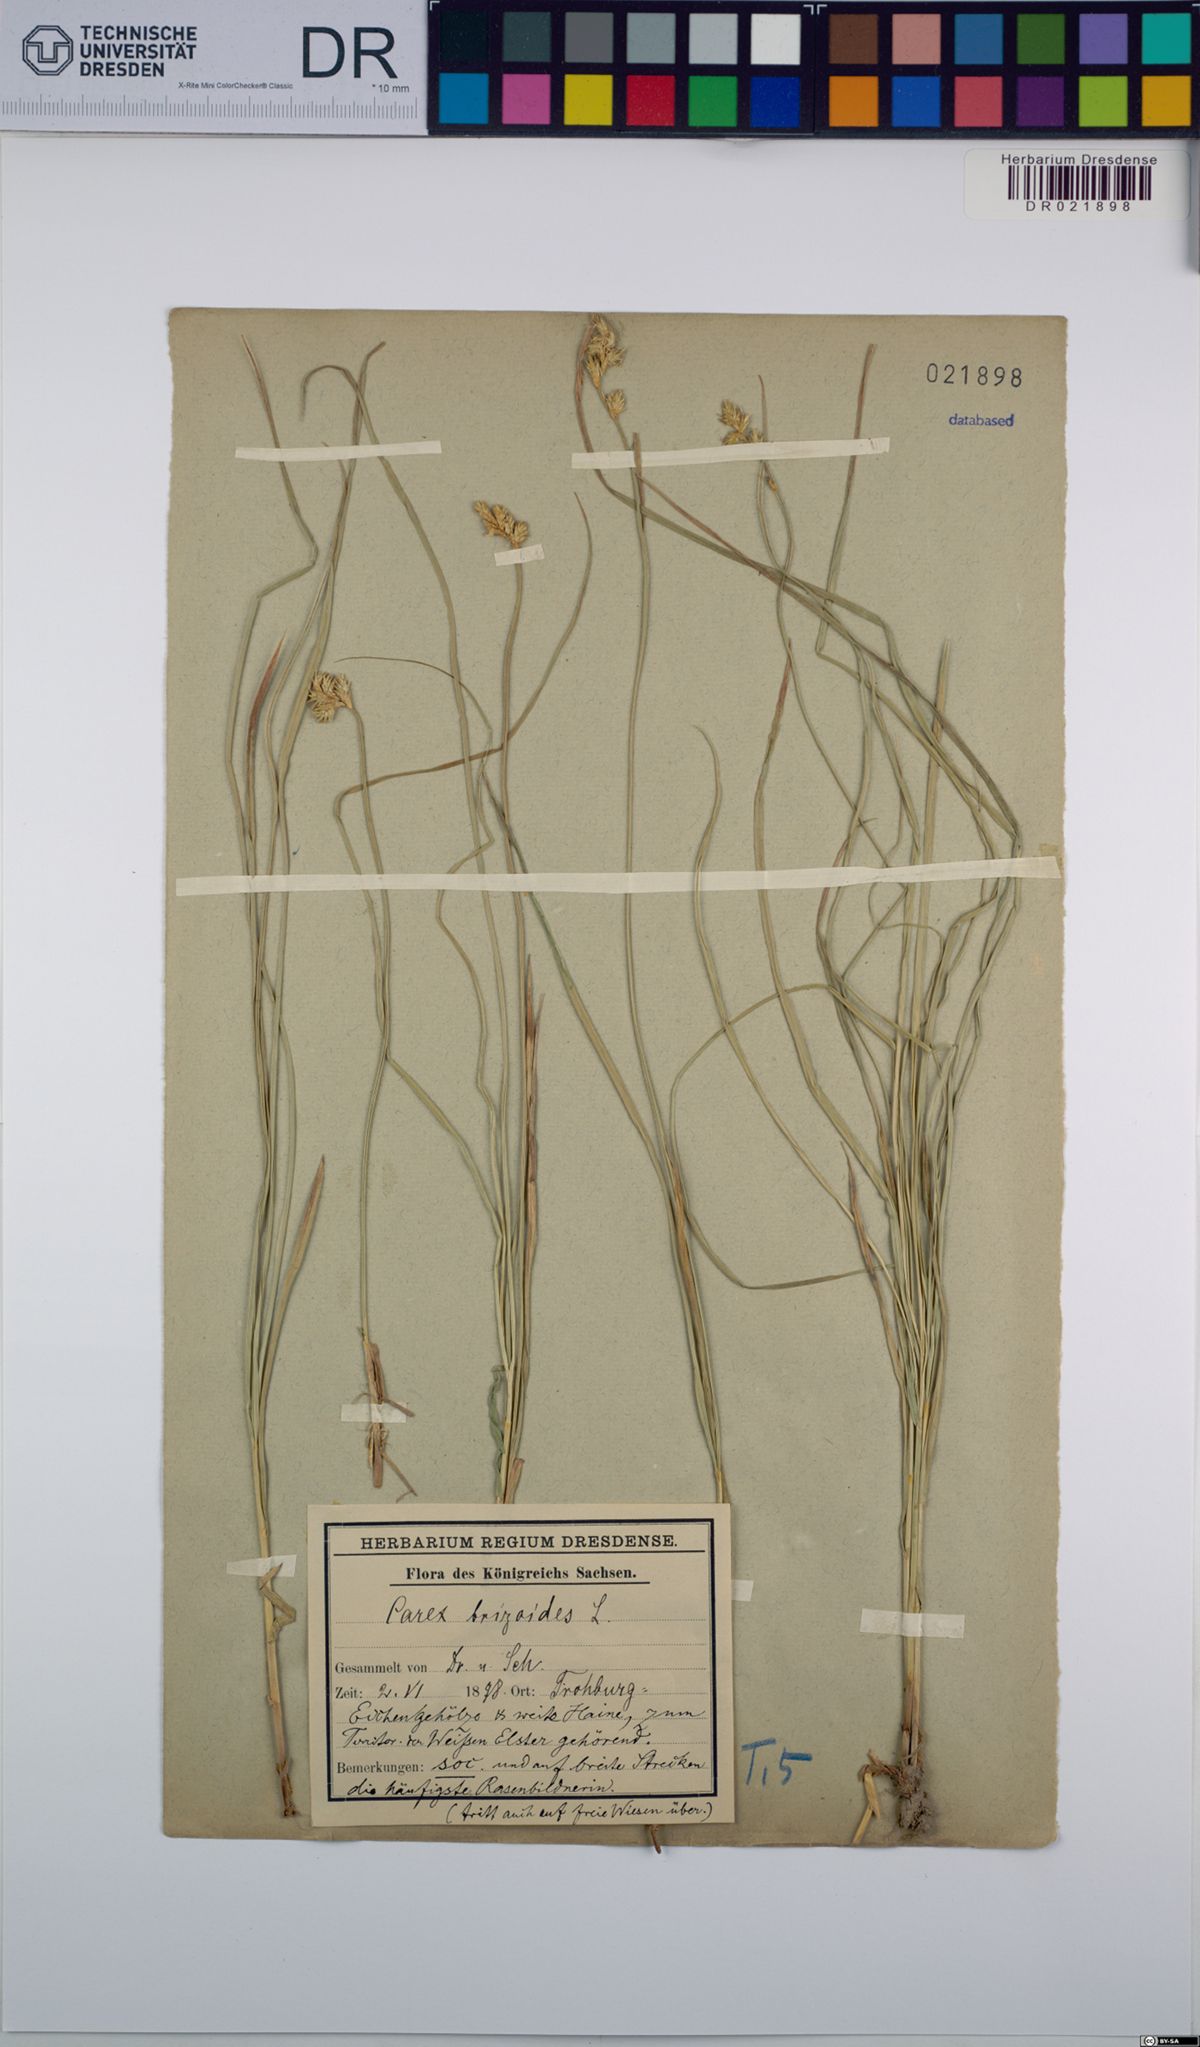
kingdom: Plantae
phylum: Tracheophyta
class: Liliopsida
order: Poales
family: Cyperaceae
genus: Carex
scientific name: Carex brizoides
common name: Quaking-grass sedge
